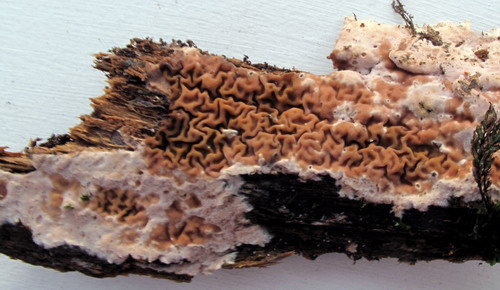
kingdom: Fungi
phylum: Basidiomycota
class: Agaricomycetes
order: Boletales
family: Serpulaceae
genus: Serpula
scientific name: Serpula himantioides
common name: tyndkødet hussvamp
